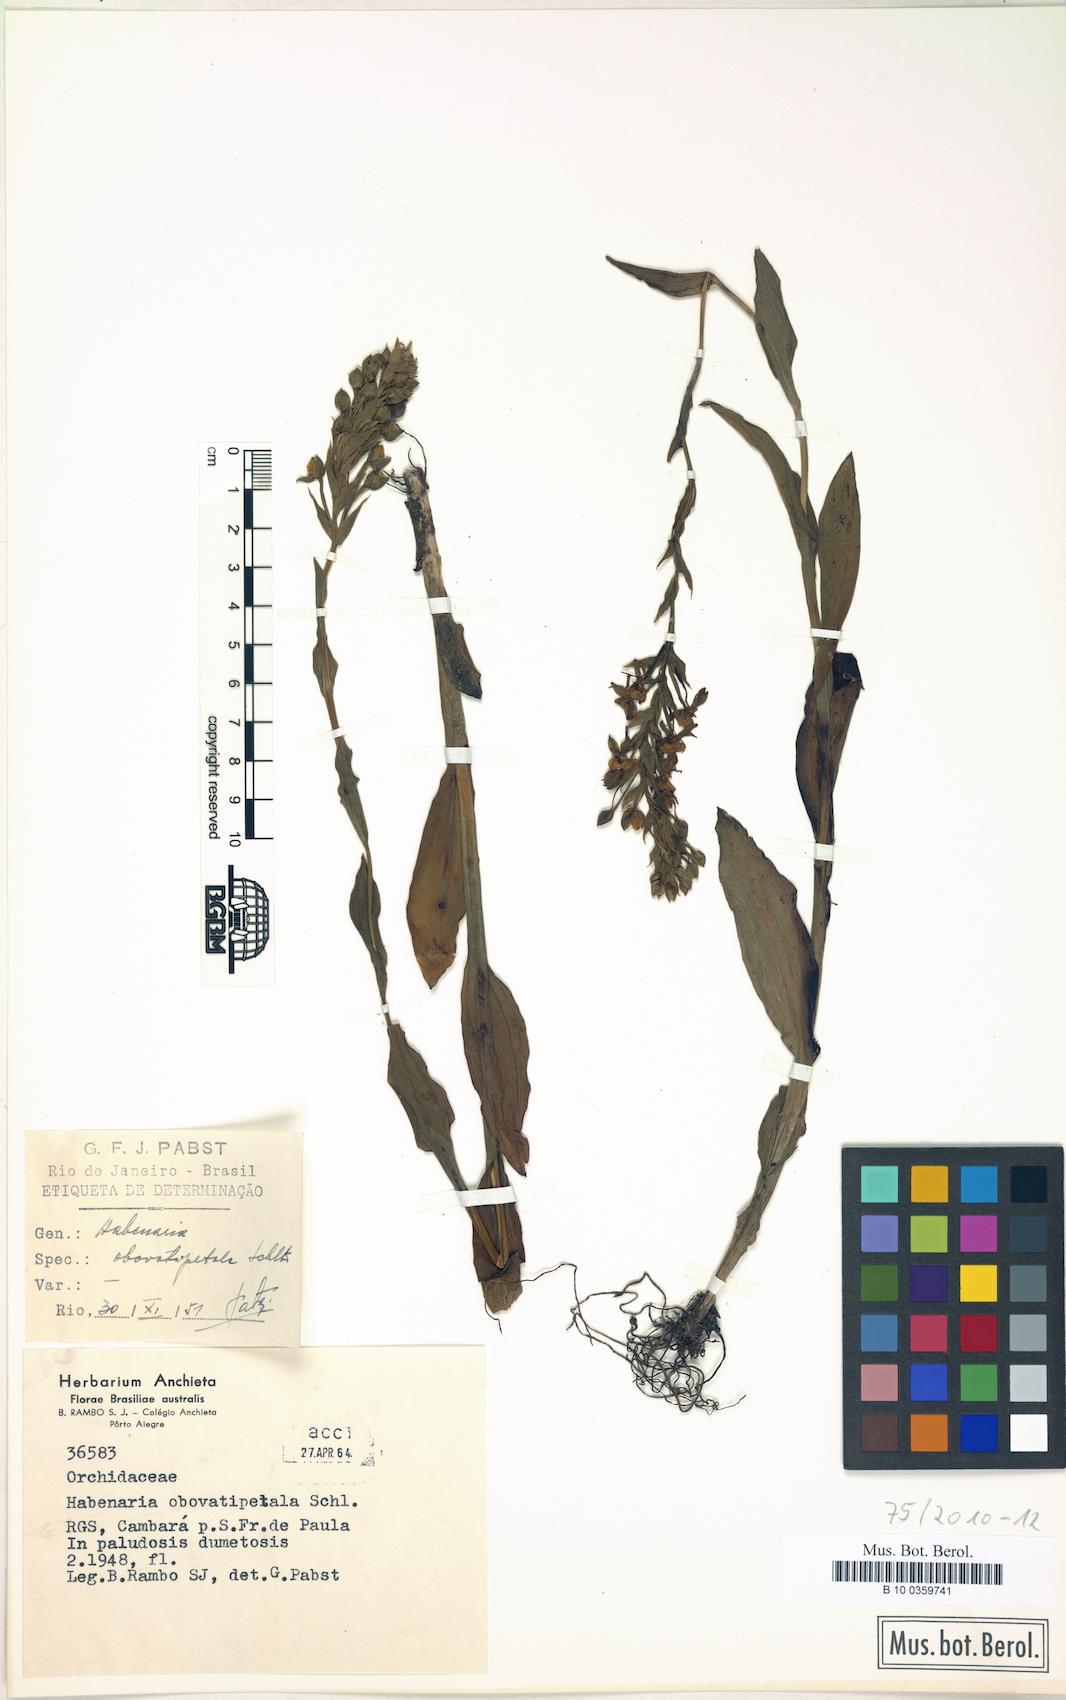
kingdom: Plantae
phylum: Tracheophyta
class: Liliopsida
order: Asparagales
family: Orchidaceae
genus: Habenaria
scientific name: Habenaria montevidensis
